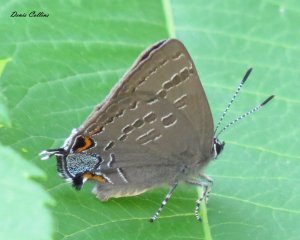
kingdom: Animalia
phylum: Arthropoda
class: Insecta
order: Lepidoptera
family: Lycaenidae
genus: Strymon
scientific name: Strymon caryaevorus
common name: Hickory Hairstreak
